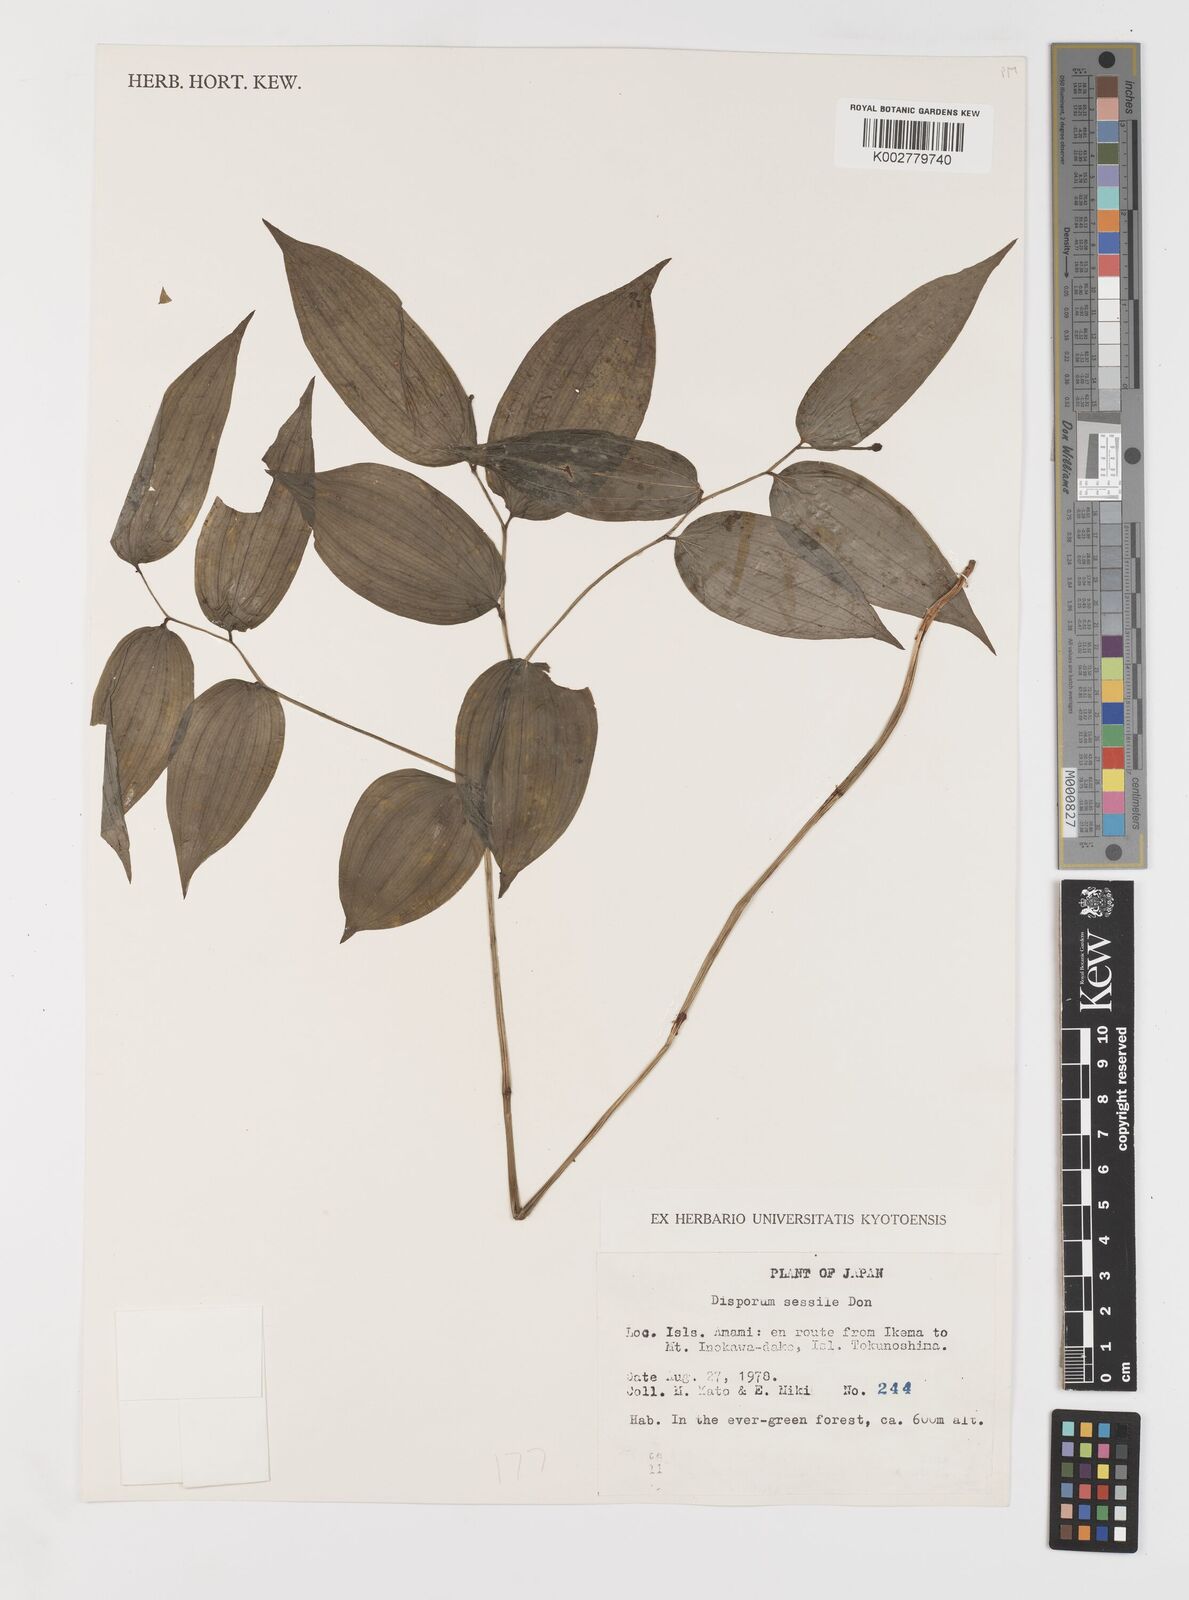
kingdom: Plantae
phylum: Tracheophyta
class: Liliopsida
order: Liliales
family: Colchicaceae
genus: Disporum
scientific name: Disporum sessile
